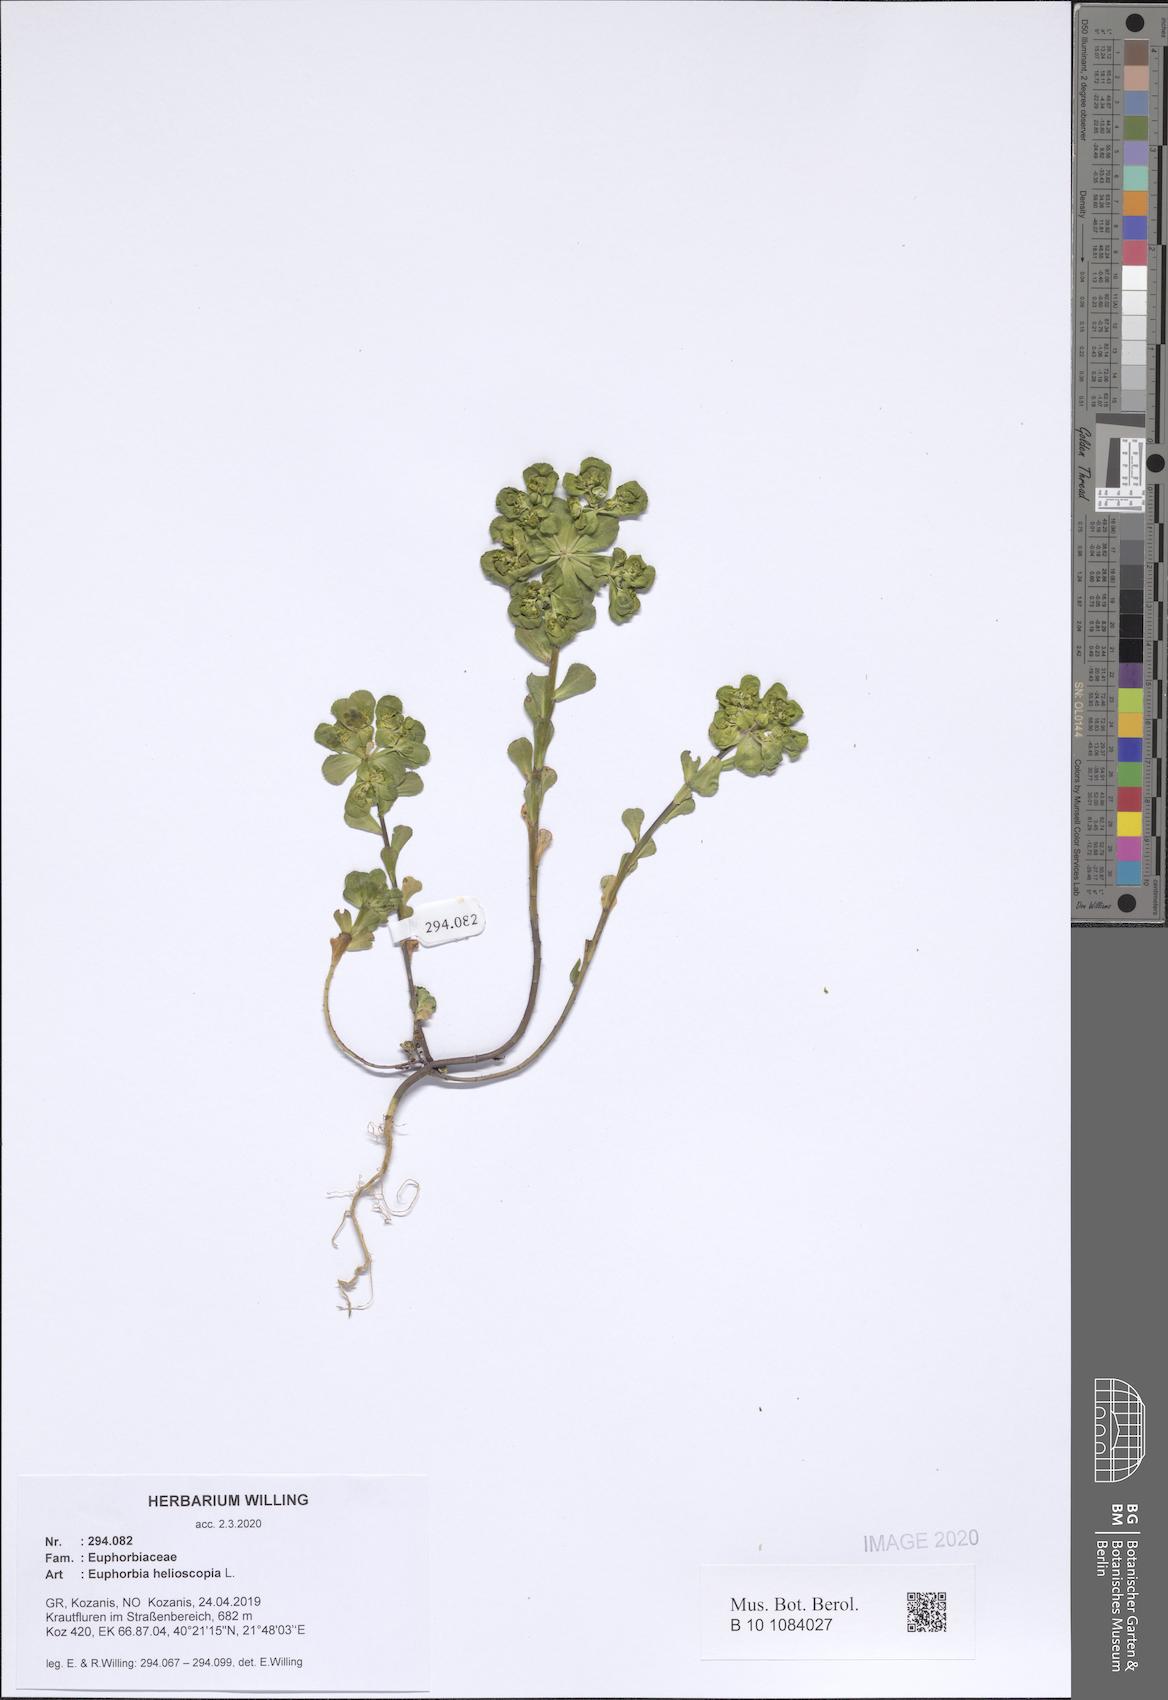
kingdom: Plantae
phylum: Tracheophyta
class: Magnoliopsida
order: Malpighiales
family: Euphorbiaceae
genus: Euphorbia
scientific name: Euphorbia helioscopia
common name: Sun spurge
